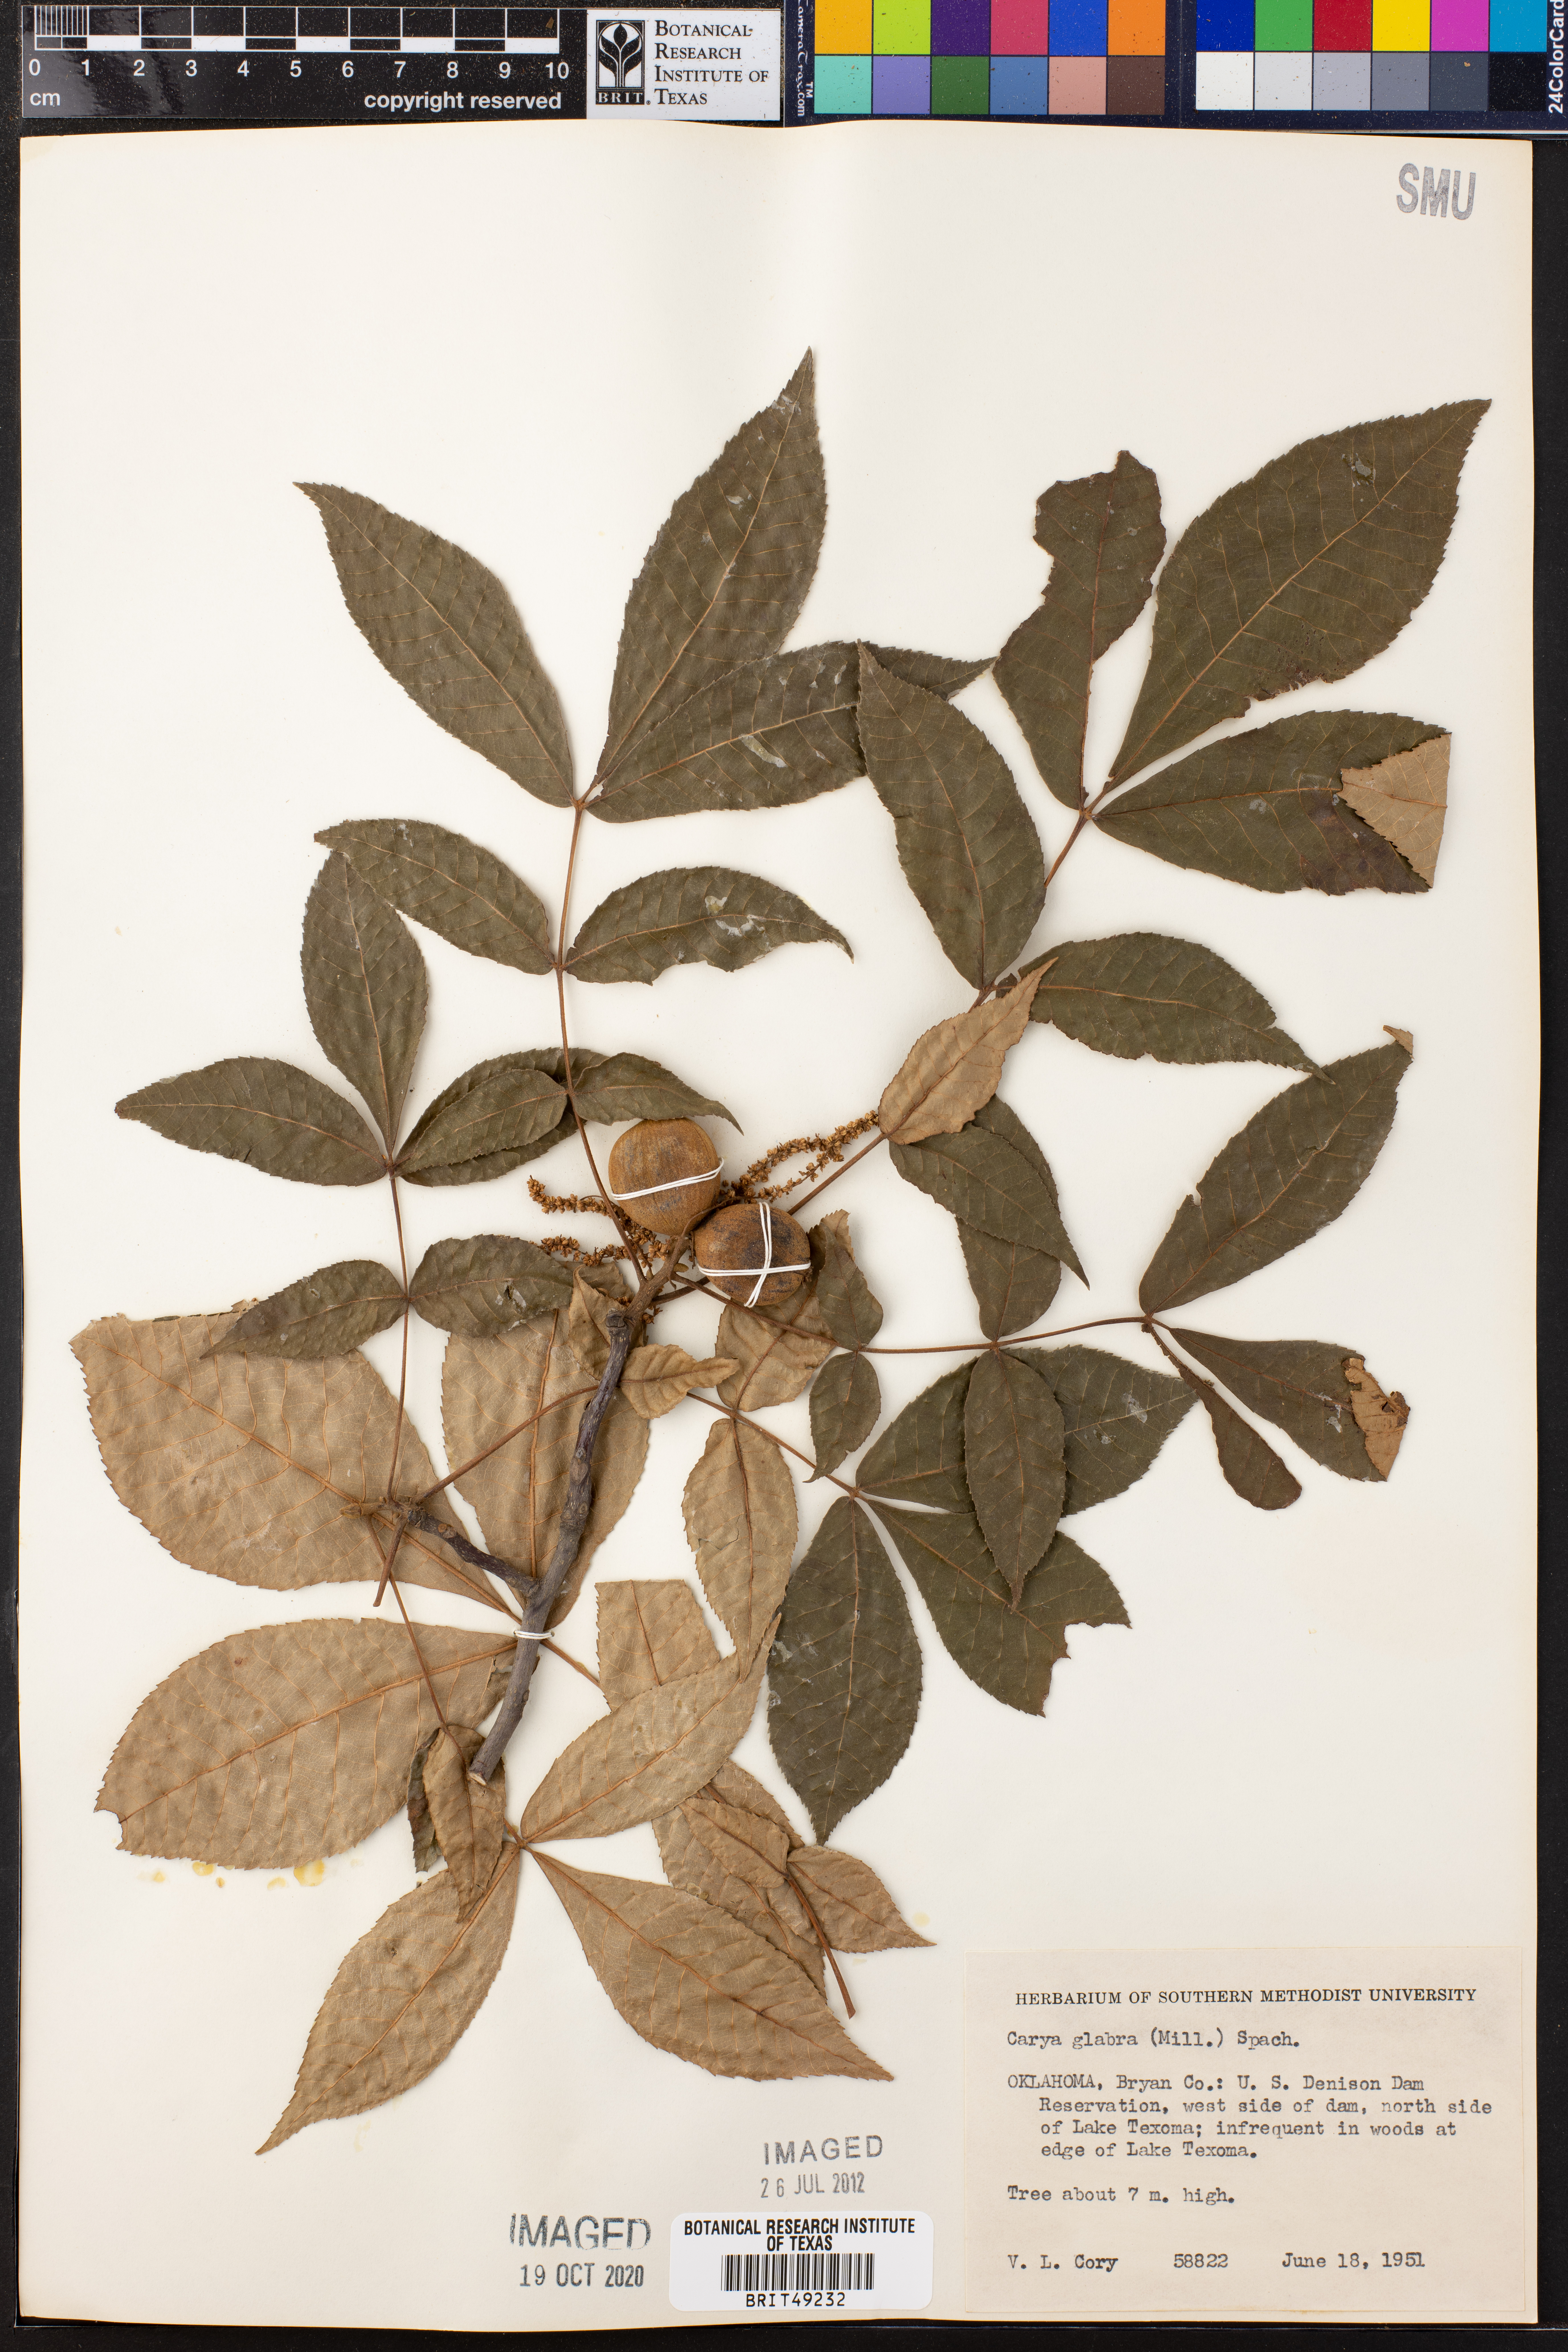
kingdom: Plantae
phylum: Tracheophyta
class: Magnoliopsida
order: Fagales
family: Juglandaceae
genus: Carya
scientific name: Carya glabra
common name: Pignut hickory
